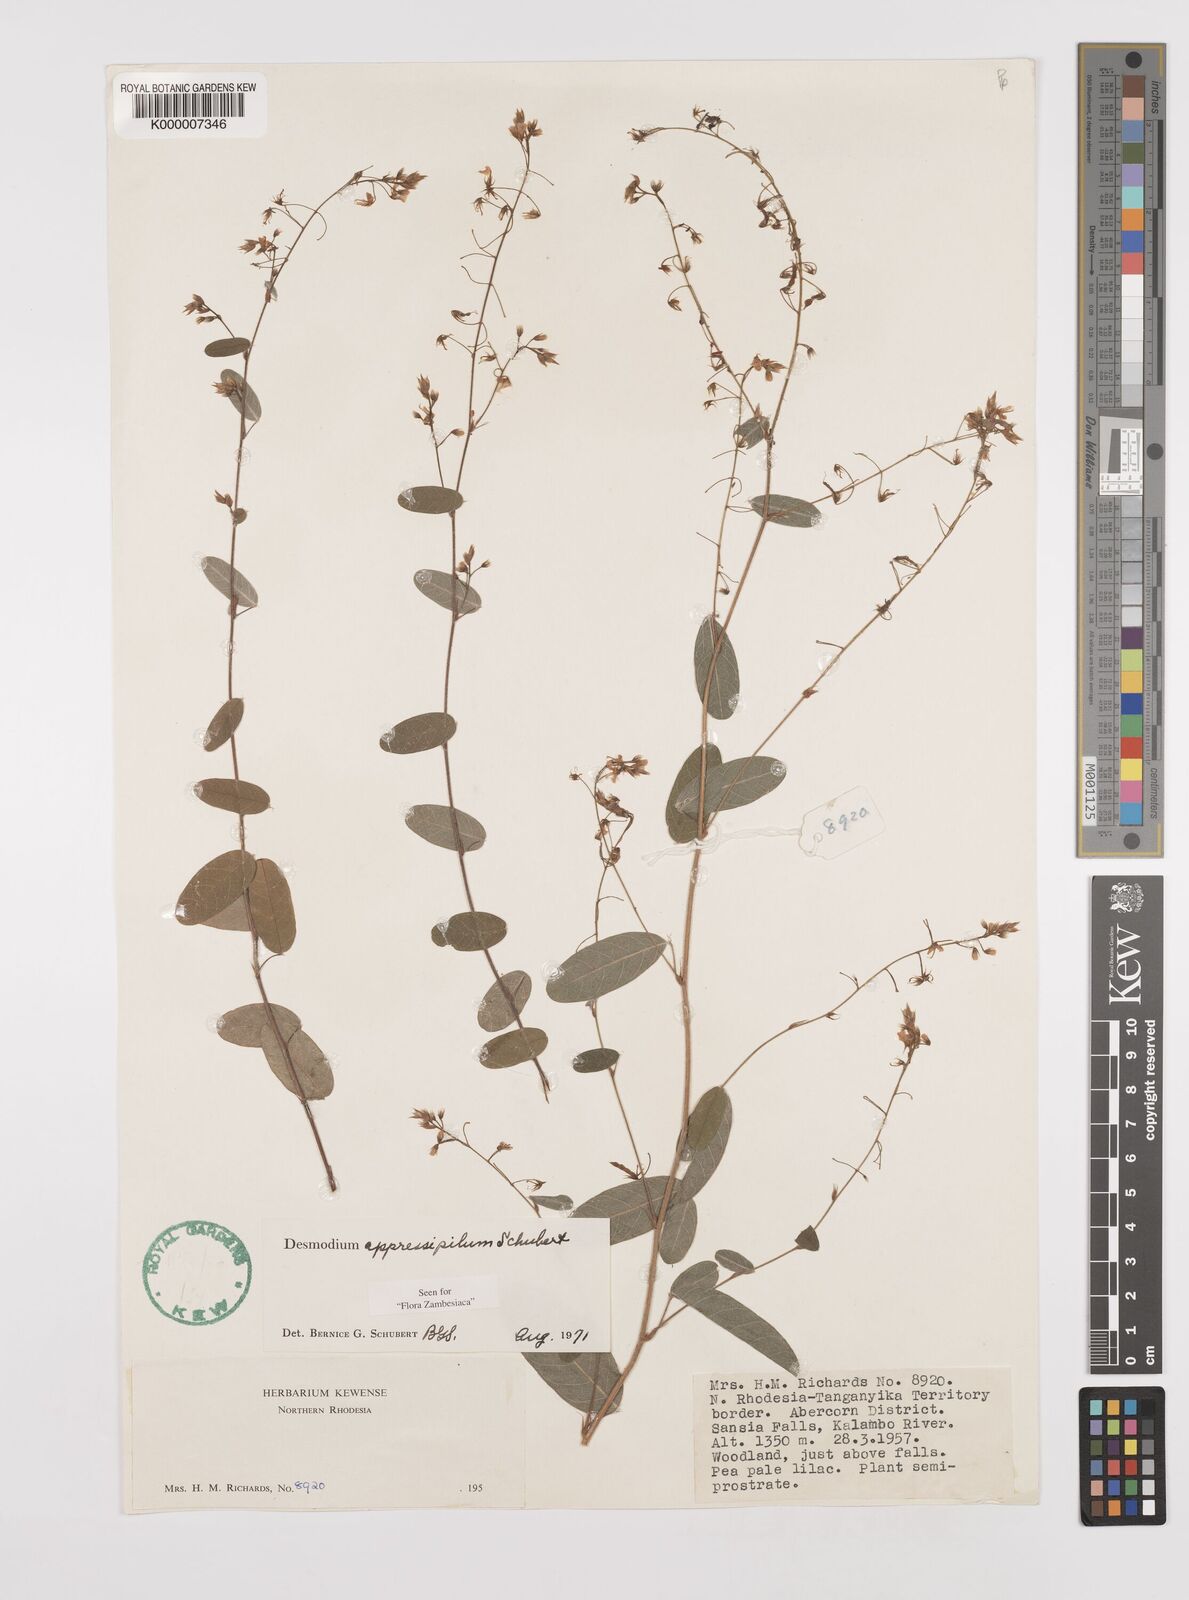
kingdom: Plantae
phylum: Tracheophyta
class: Magnoliopsida
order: Fabales
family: Fabaceae
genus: Grona
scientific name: Grona appressipila
